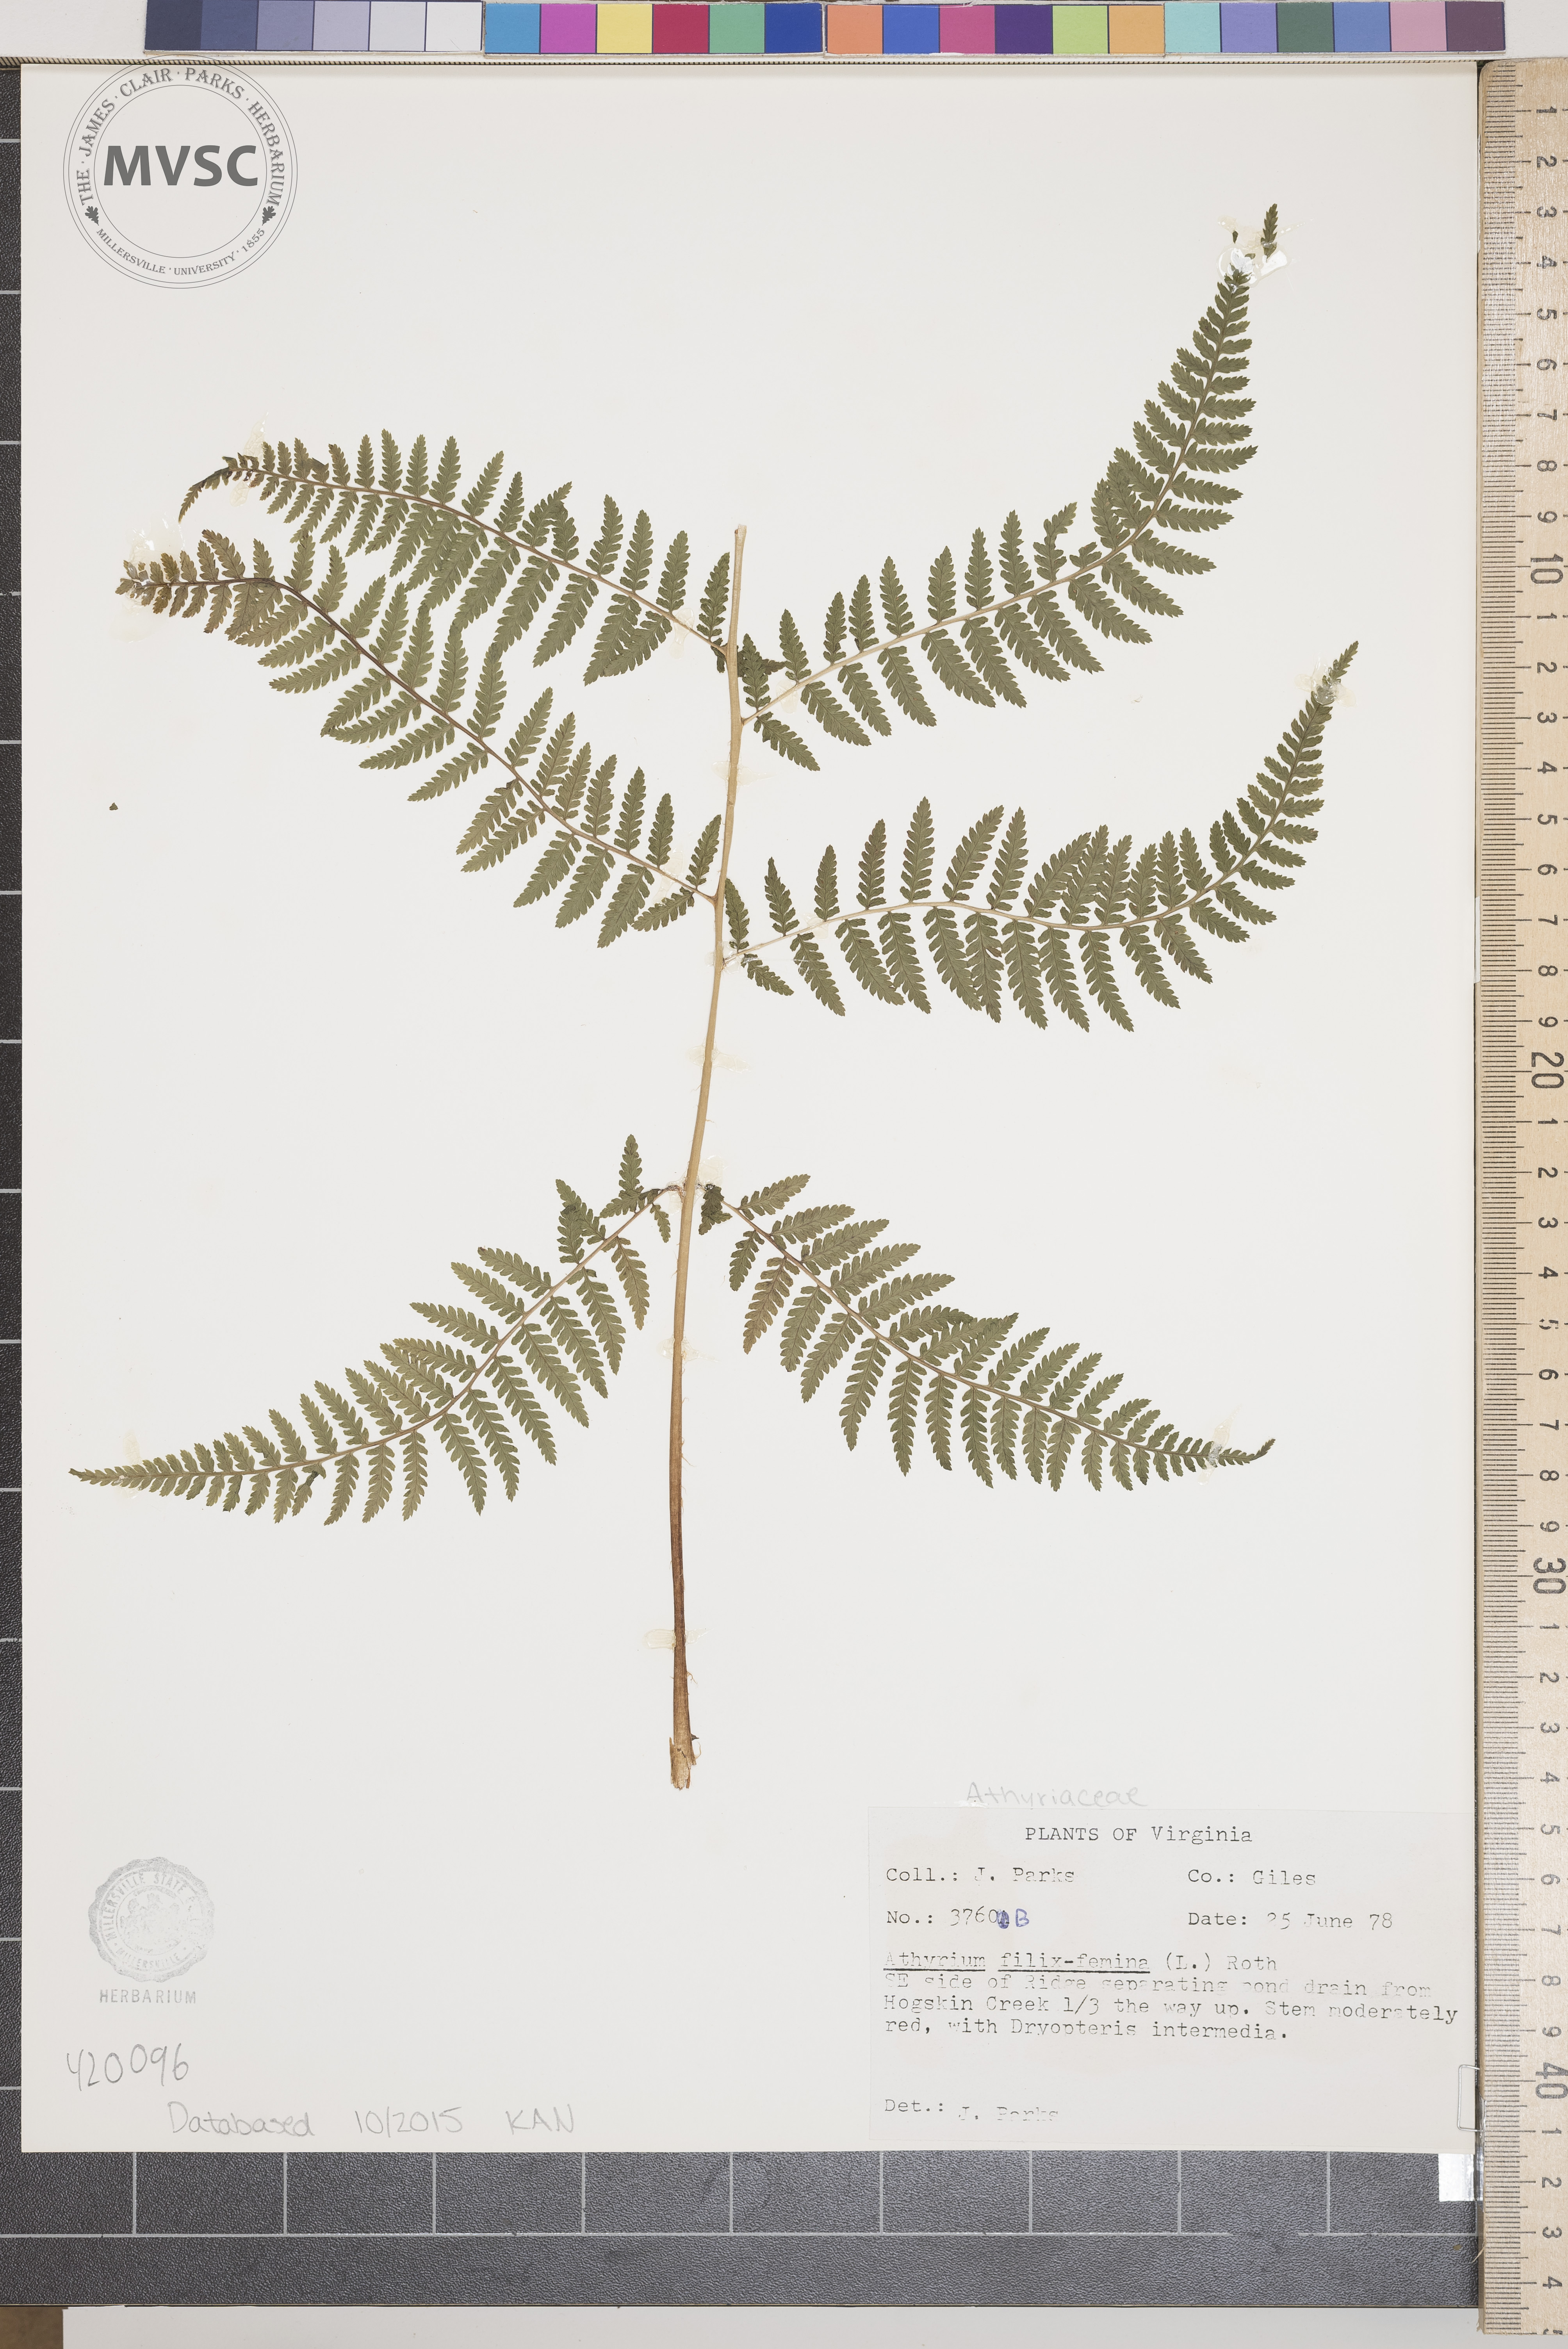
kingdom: Plantae
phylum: Tracheophyta
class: Polypodiopsida
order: Polypodiales
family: Athyriaceae
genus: Athyrium
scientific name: Athyrium filix-femina
